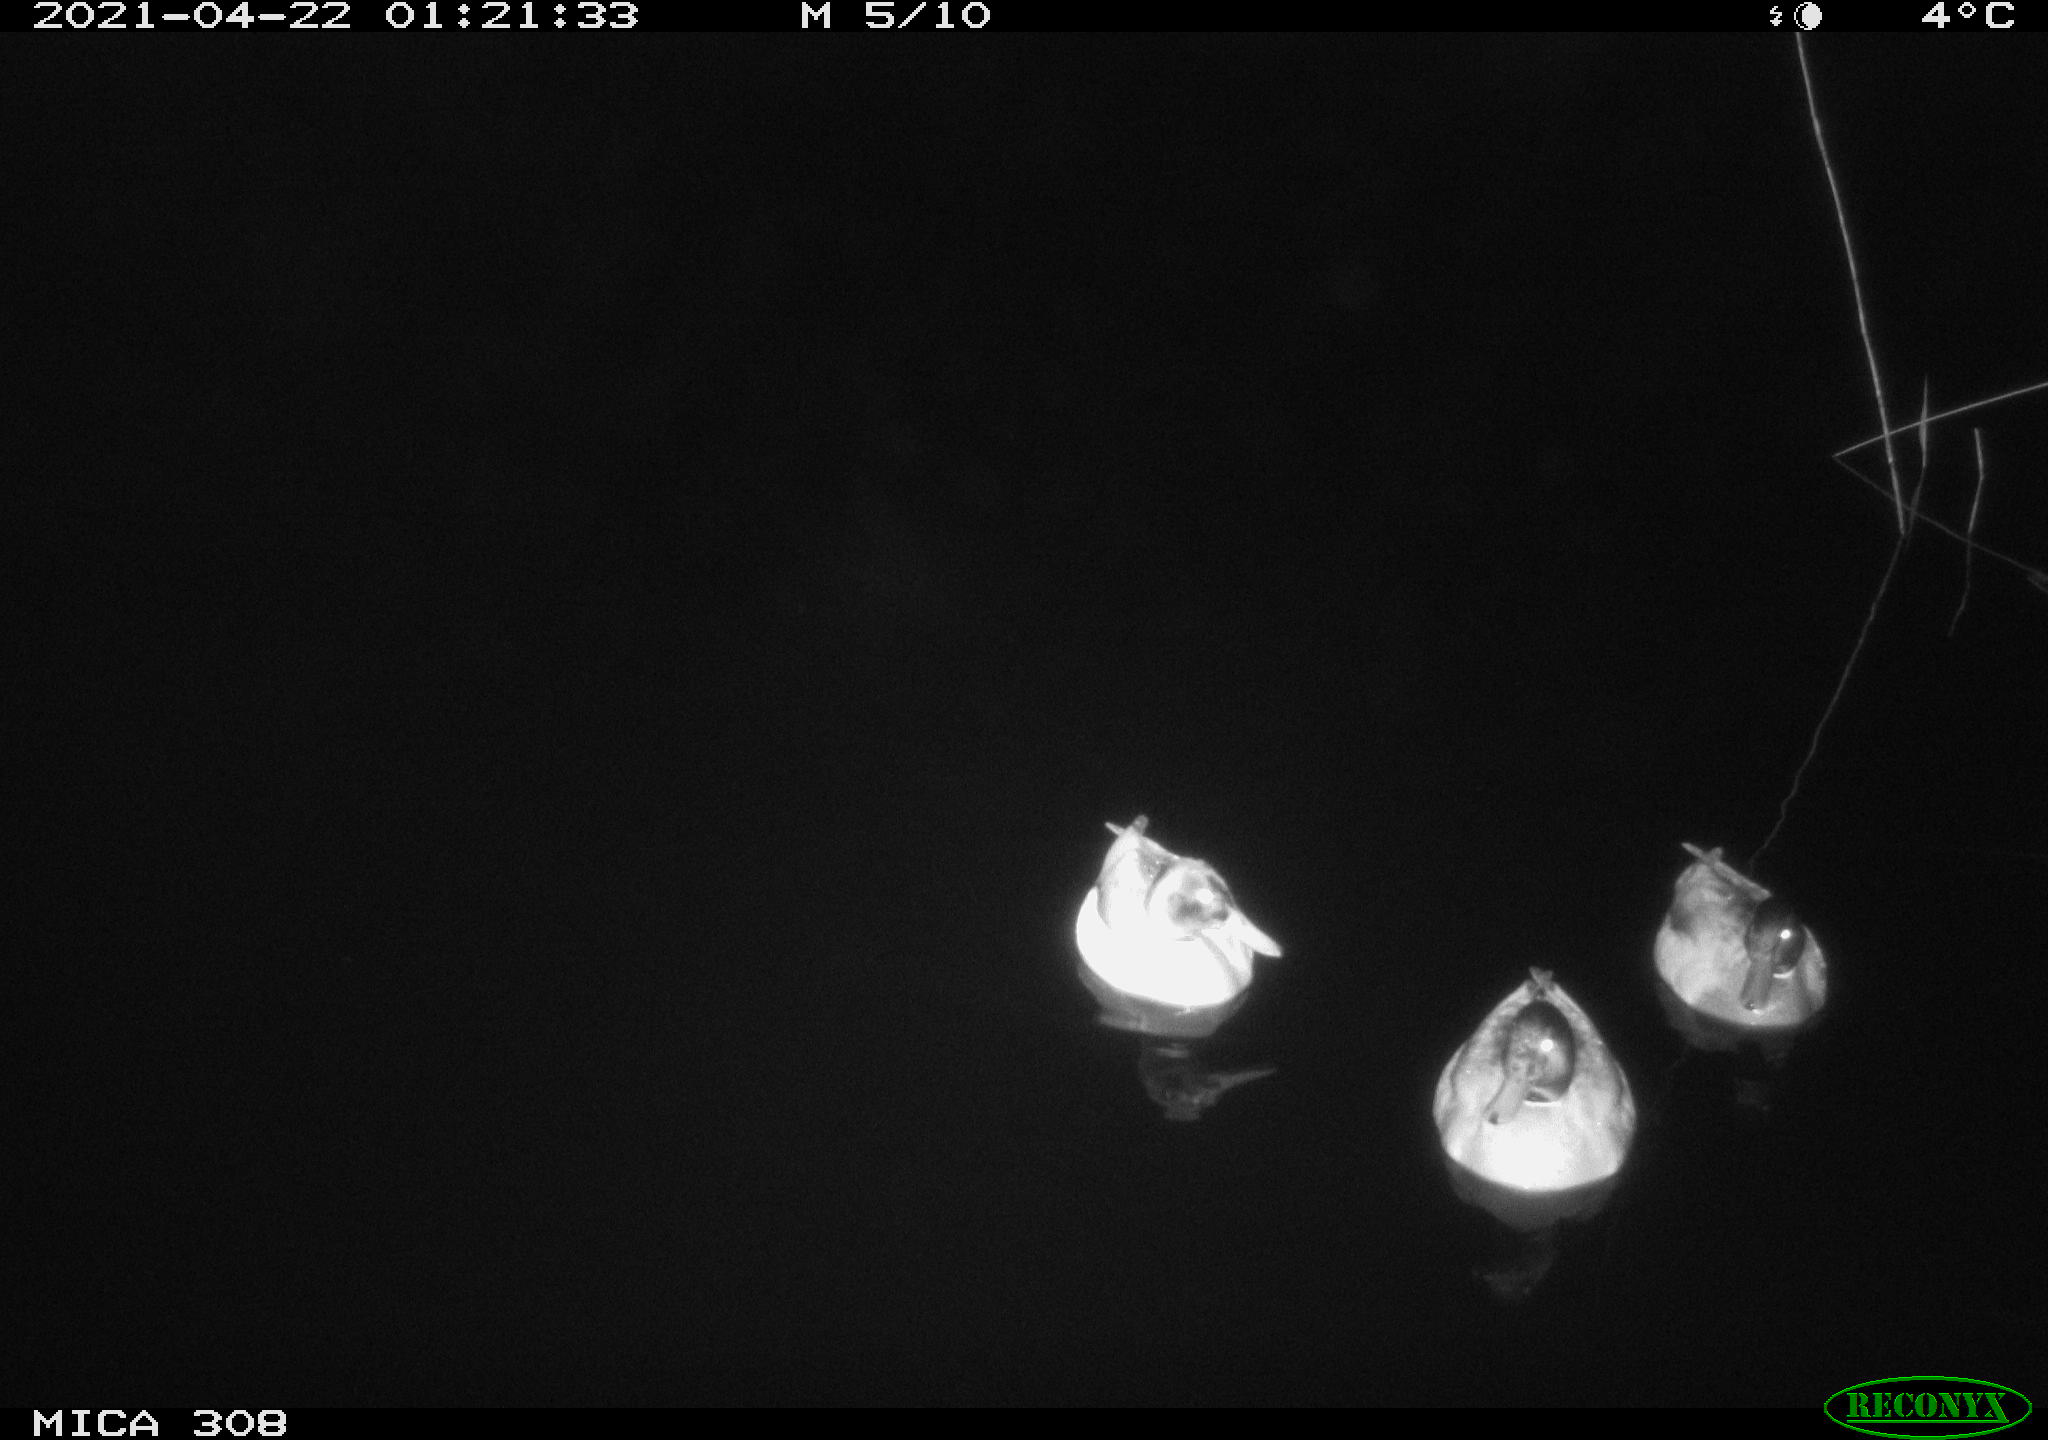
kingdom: Animalia
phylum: Chordata
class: Aves
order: Anseriformes
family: Anatidae
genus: Anas
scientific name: Anas platyrhynchos
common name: Mallard
